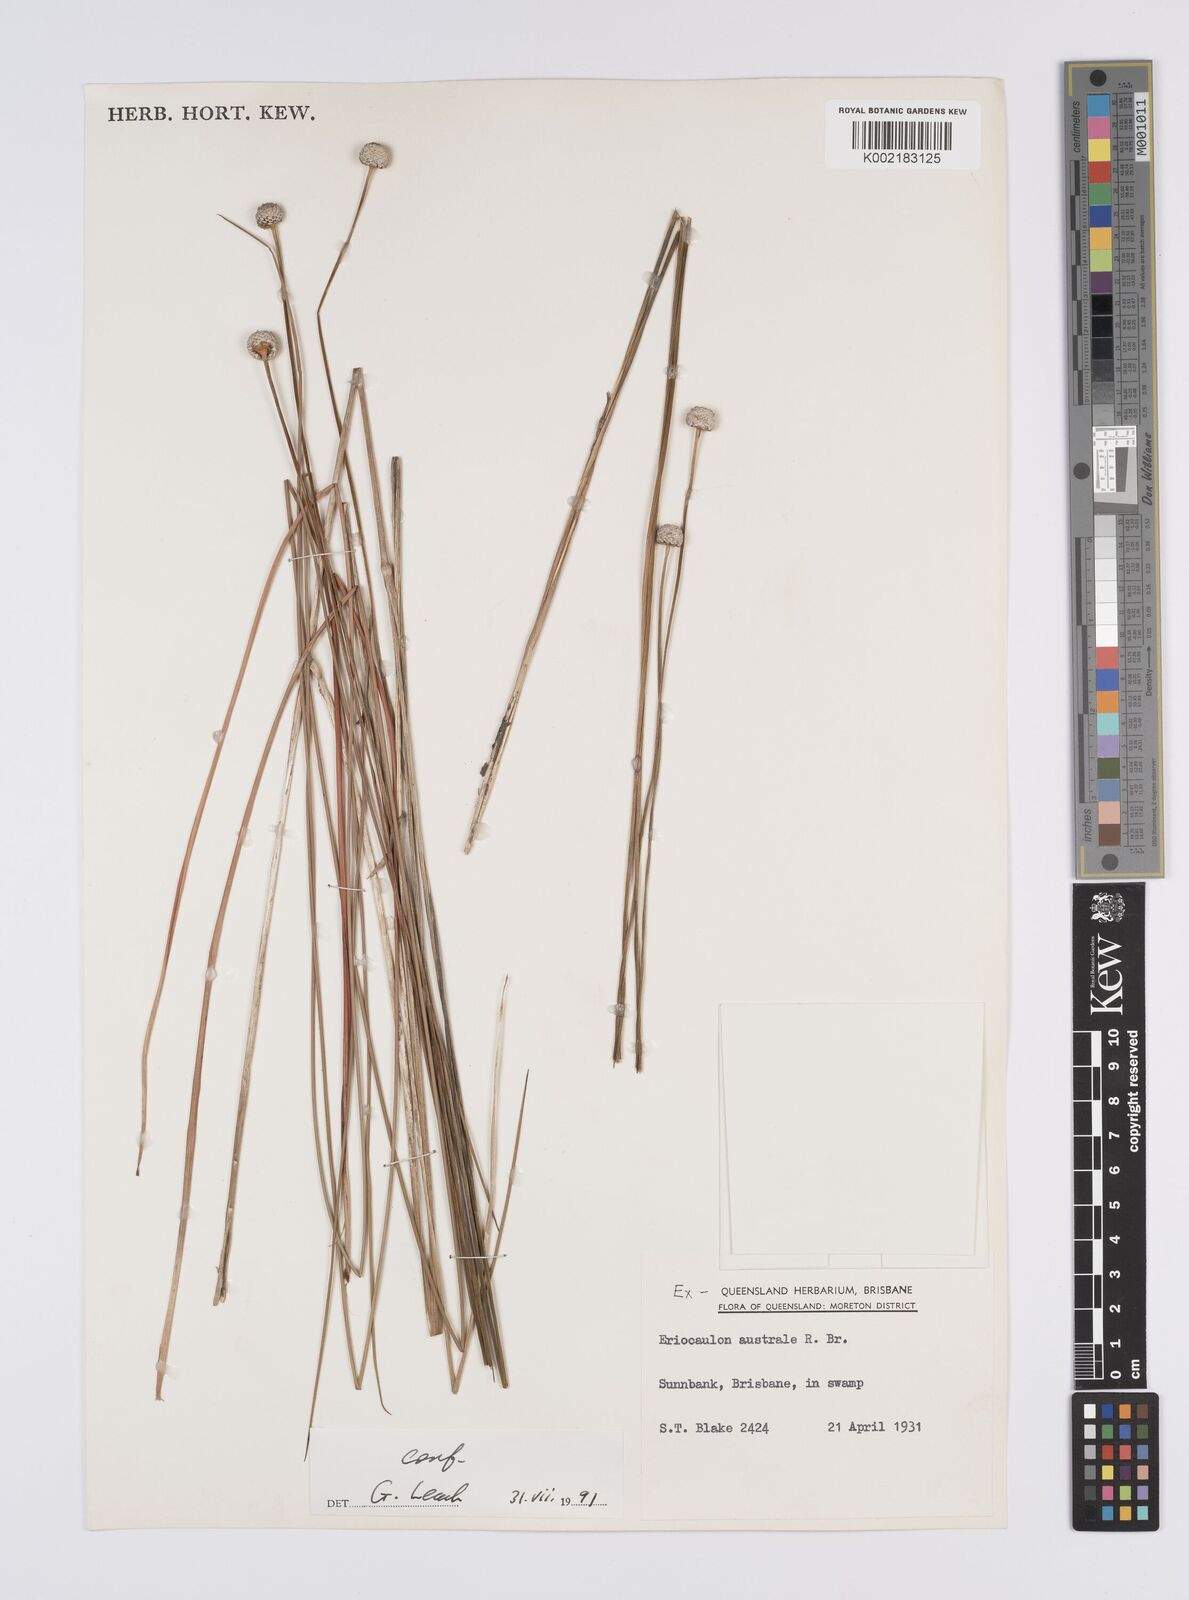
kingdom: Plantae
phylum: Tracheophyta
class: Liliopsida
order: Poales
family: Eriocaulaceae
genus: Eriocaulon
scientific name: Eriocaulon australe
